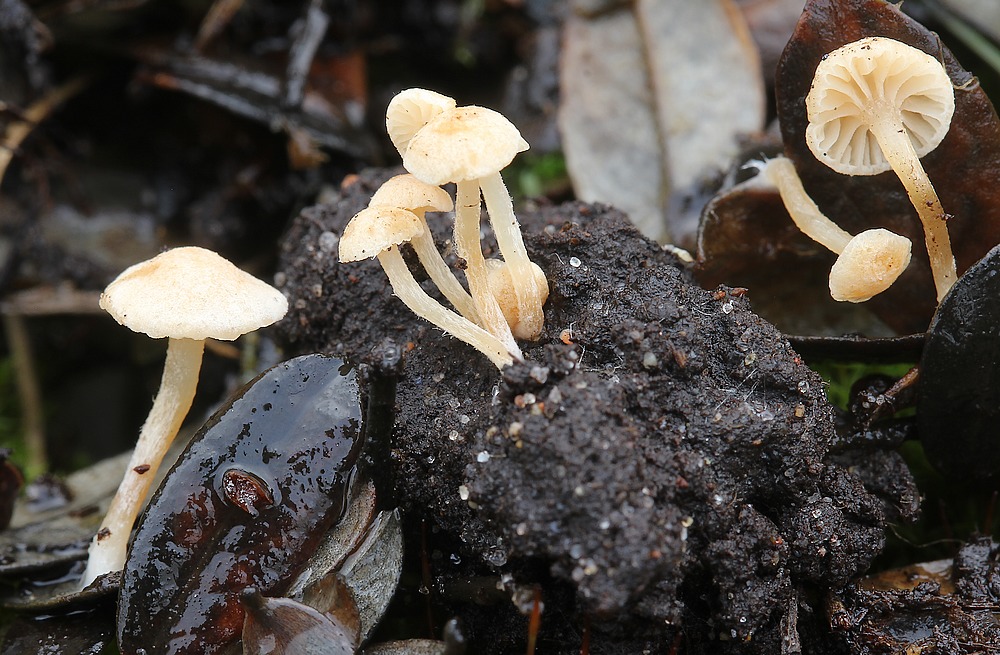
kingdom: Fungi
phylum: Basidiomycota
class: Agaricomycetes
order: Agaricales
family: Tubariaceae
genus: Flammulaster
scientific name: Flammulaster carpophilus
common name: bøge-grynskælhat
